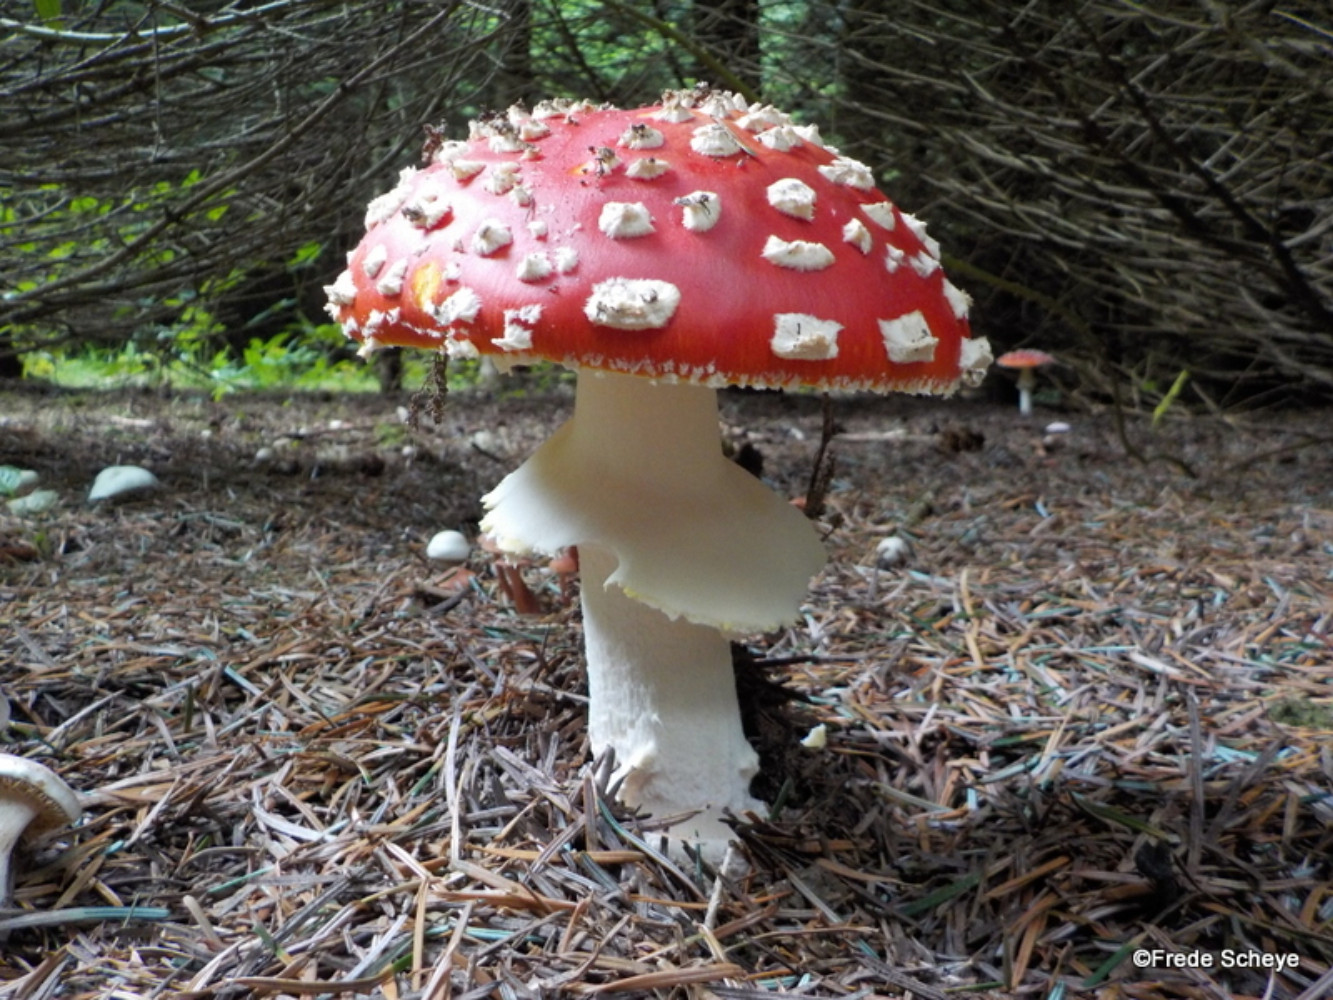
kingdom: Fungi
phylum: Basidiomycota
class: Agaricomycetes
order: Agaricales
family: Amanitaceae
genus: Amanita
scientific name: Amanita muscaria
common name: rød fluesvamp
